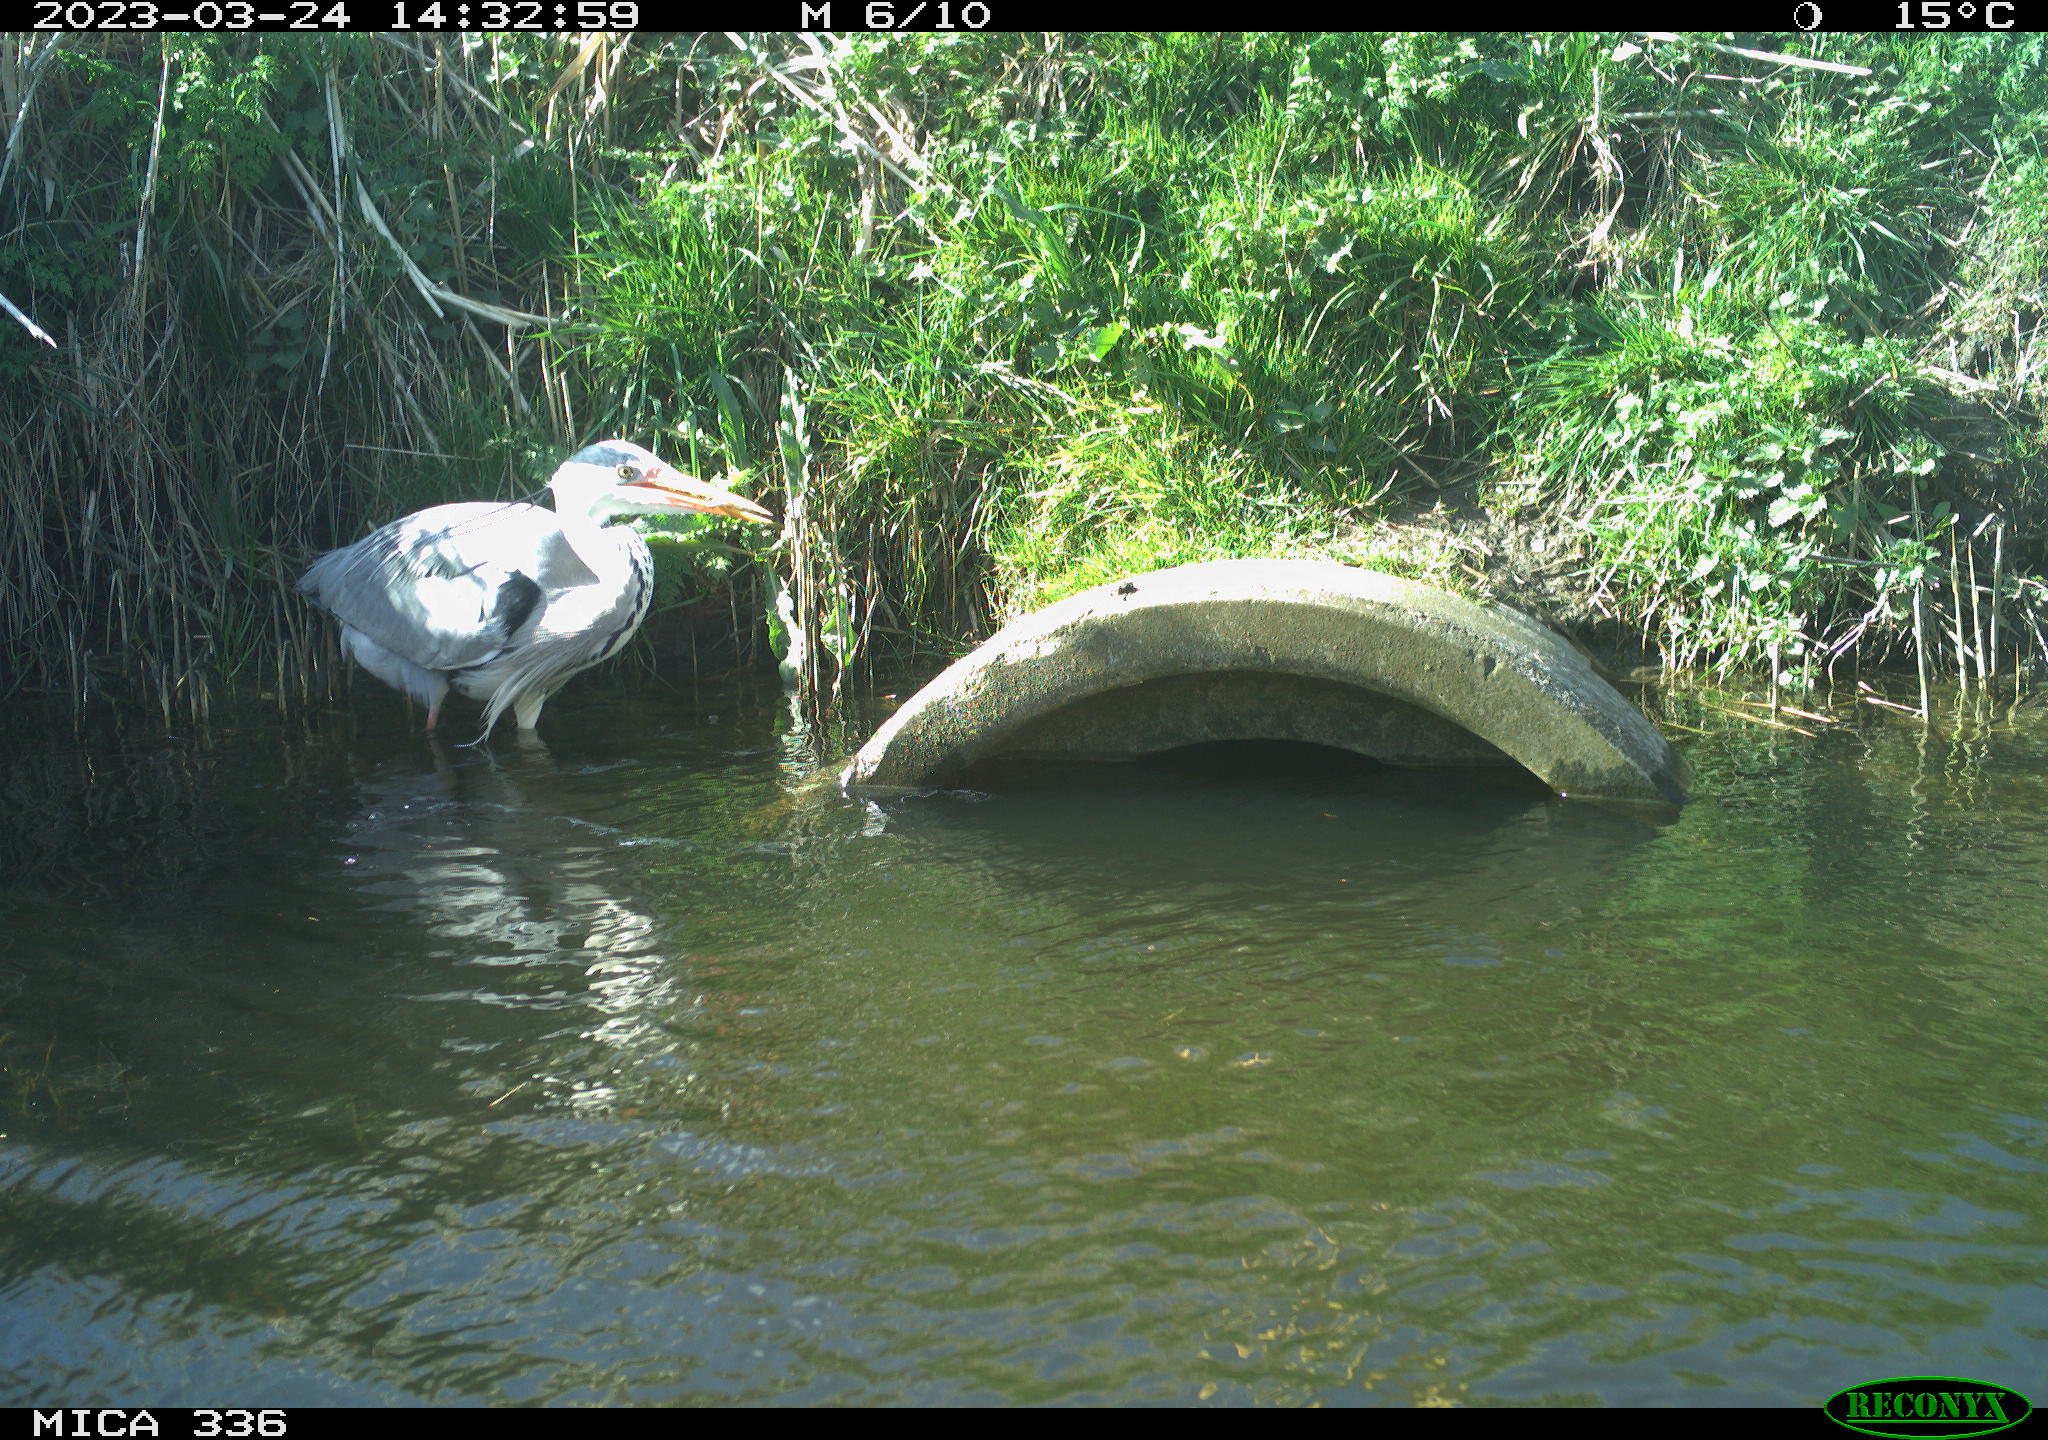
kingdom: Animalia
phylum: Chordata
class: Aves
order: Pelecaniformes
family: Ardeidae
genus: Ardea
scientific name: Ardea
